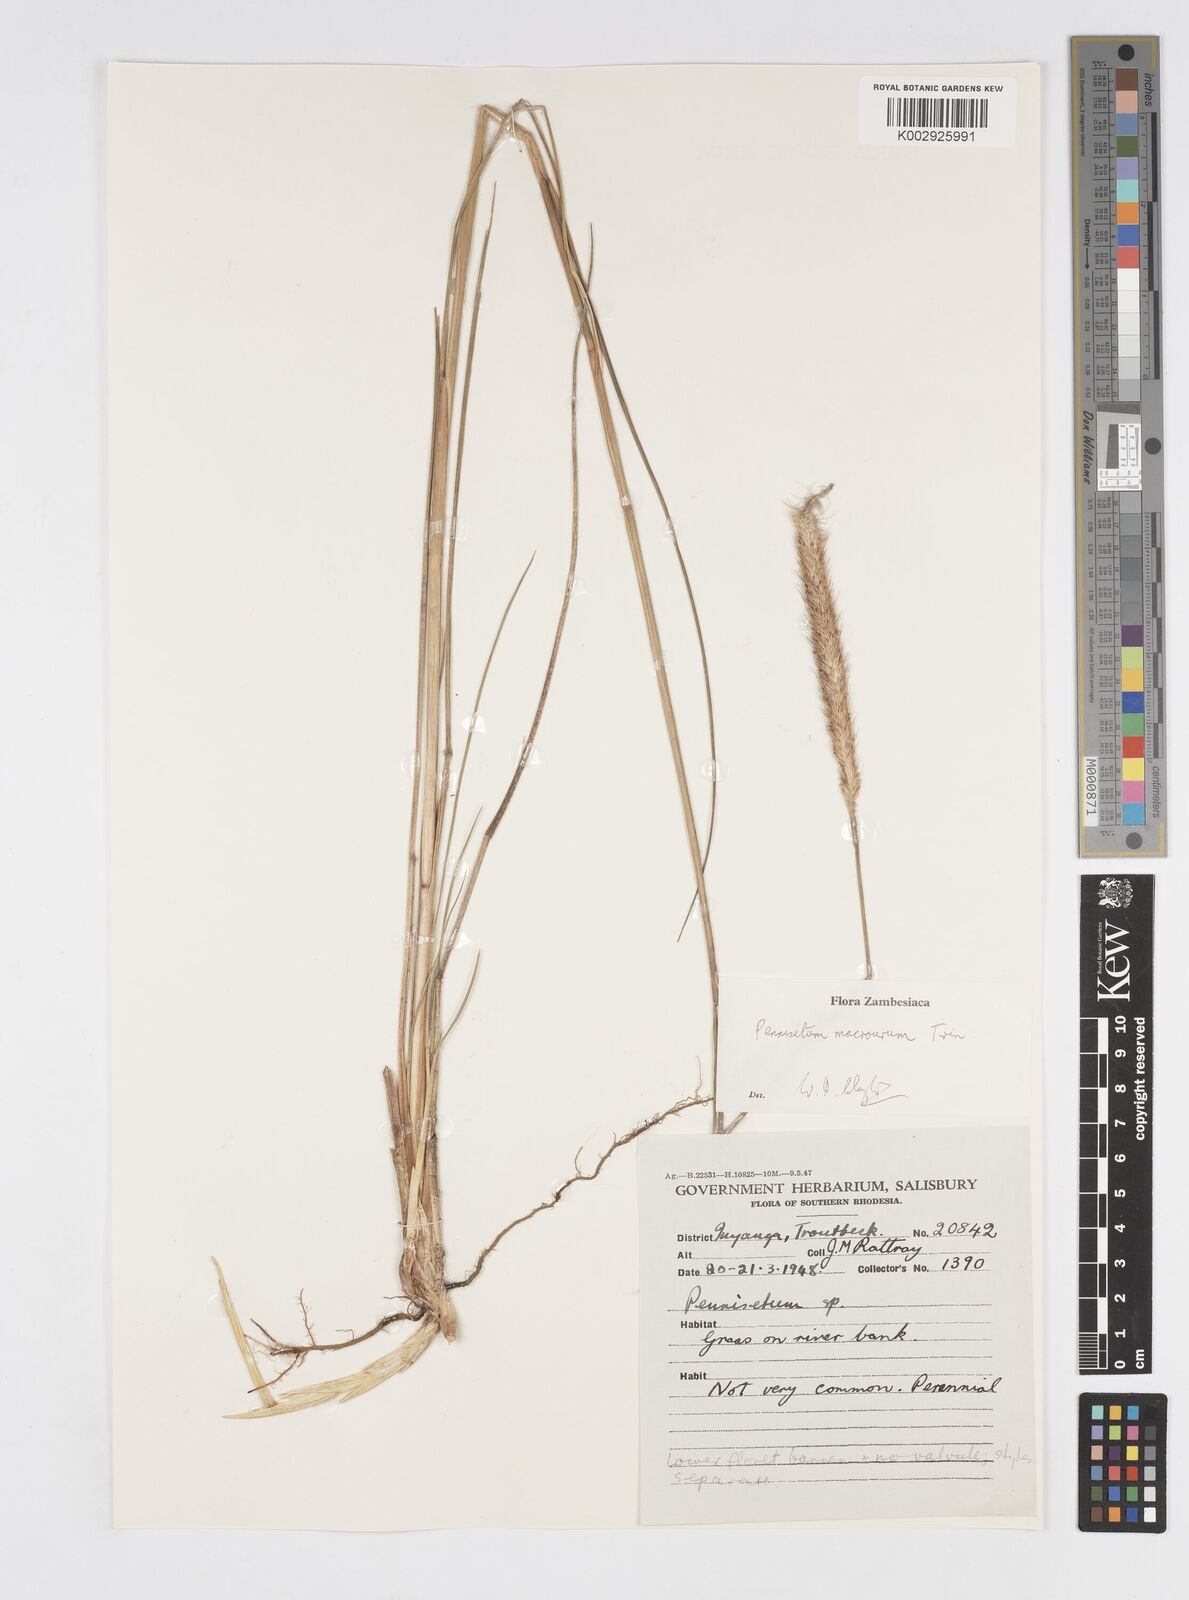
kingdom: Plantae
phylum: Tracheophyta
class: Liliopsida
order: Poales
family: Poaceae
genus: Cenchrus
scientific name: Cenchrus caudatus
